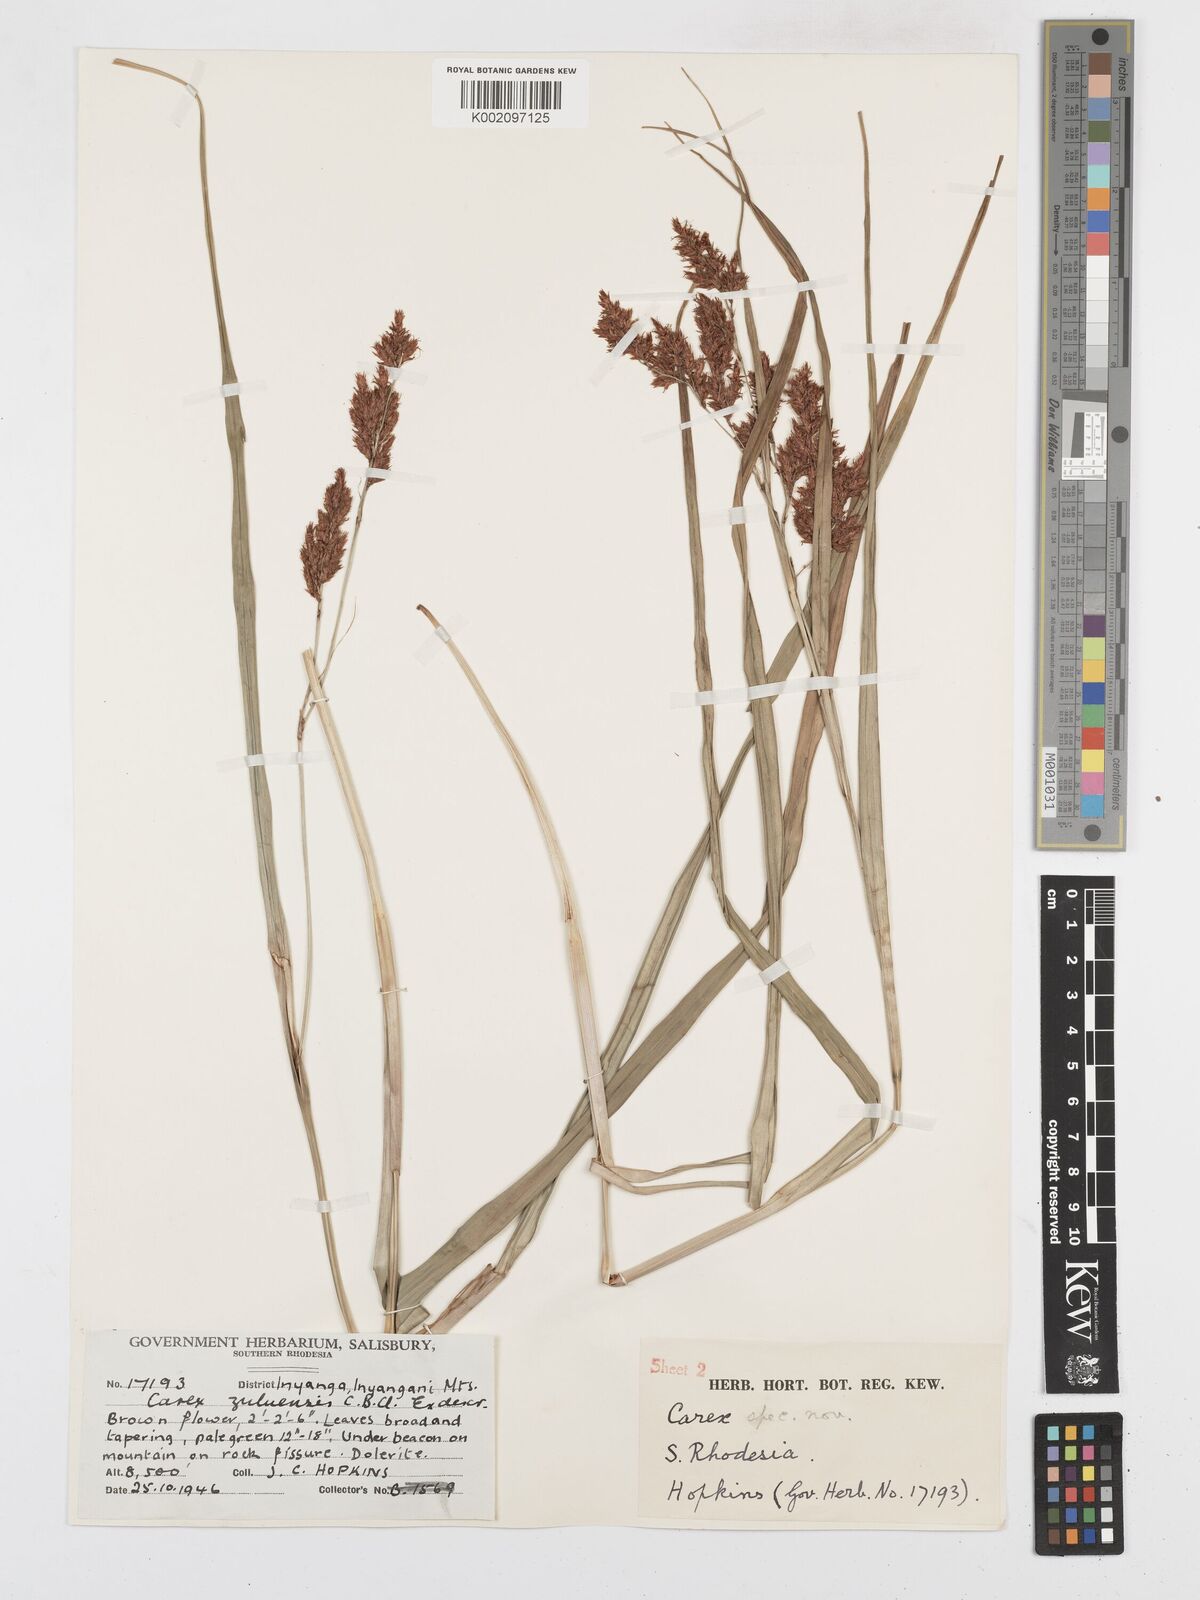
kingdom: Plantae
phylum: Tracheophyta
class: Liliopsida
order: Poales
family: Cyperaceae
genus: Carex
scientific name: Carex steudneri
